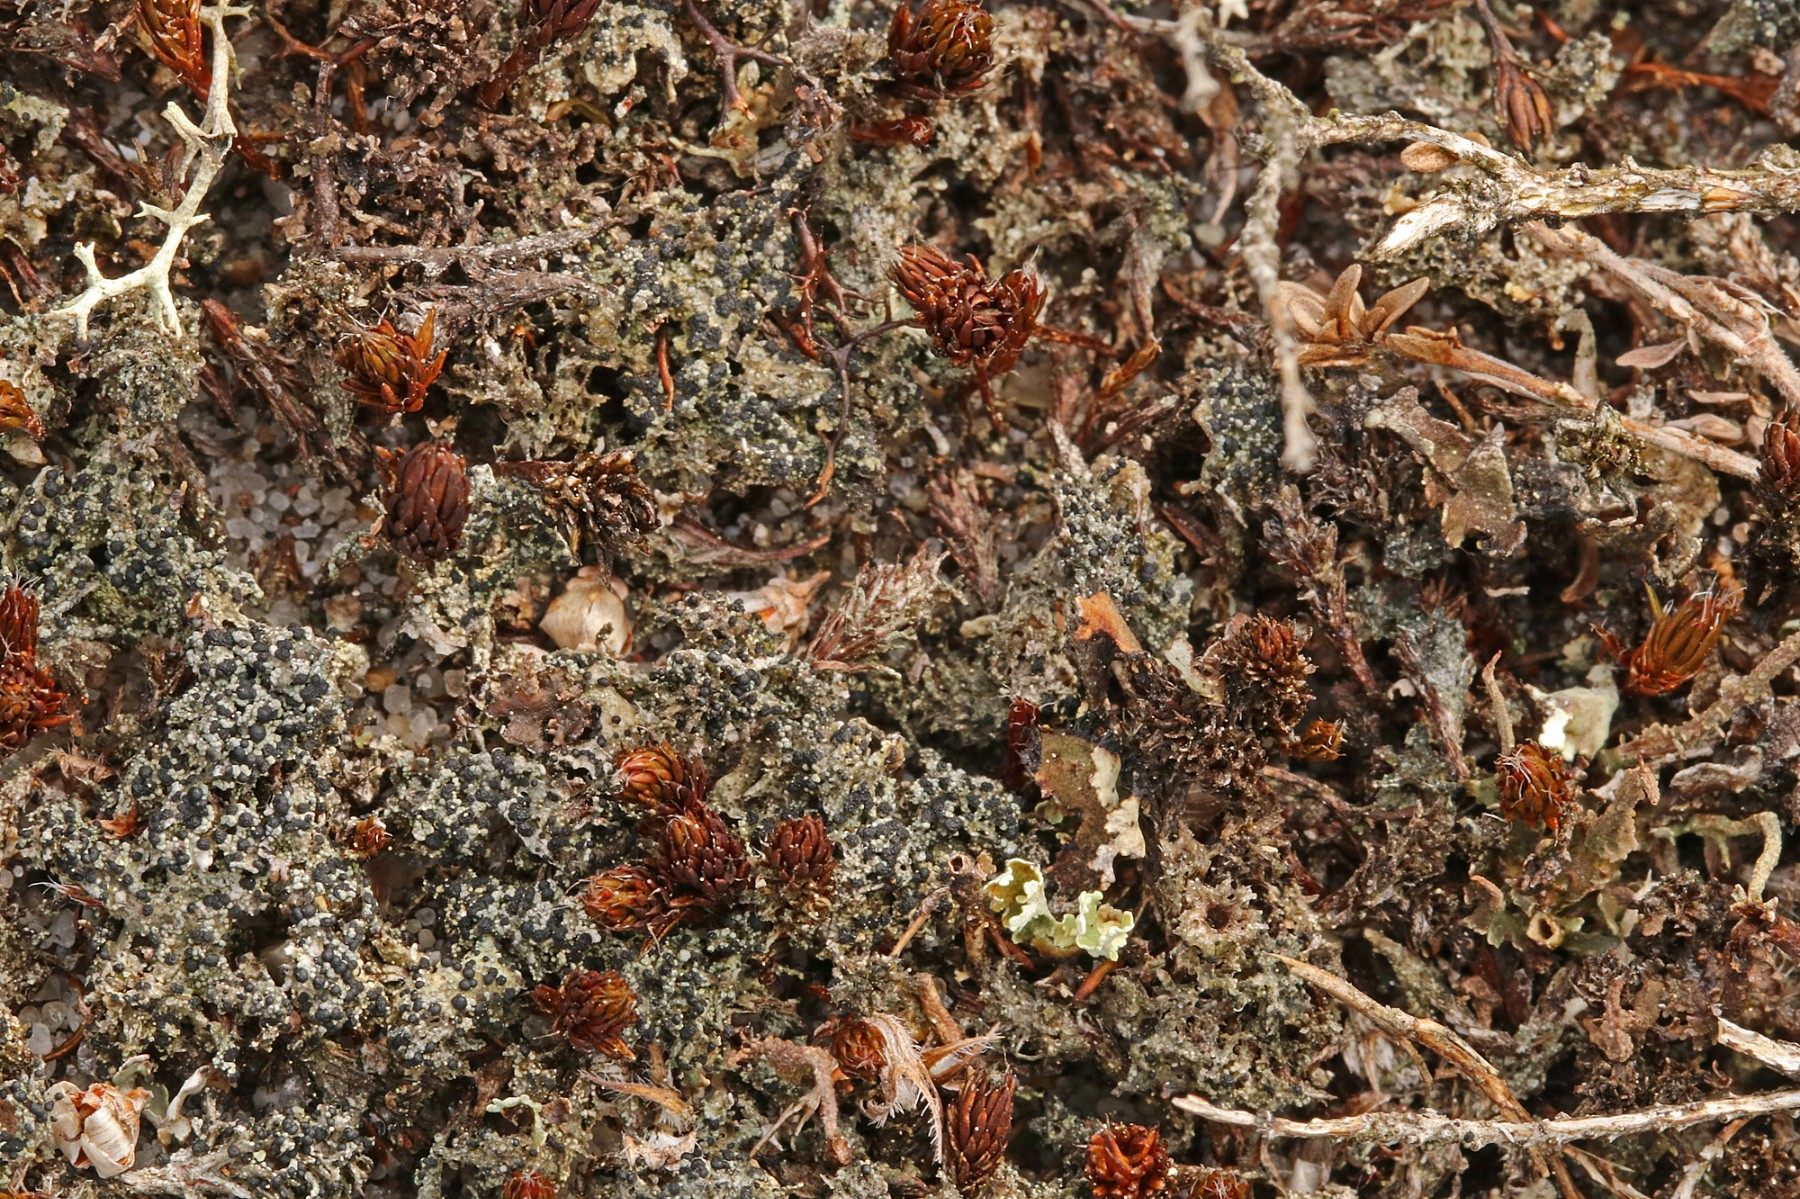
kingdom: Fungi
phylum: Ascomycota
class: Lecanoromycetes
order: Lecanorales
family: Byssolomataceae
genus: Micarea
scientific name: Micarea lignaria
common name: tørve-knaplav
